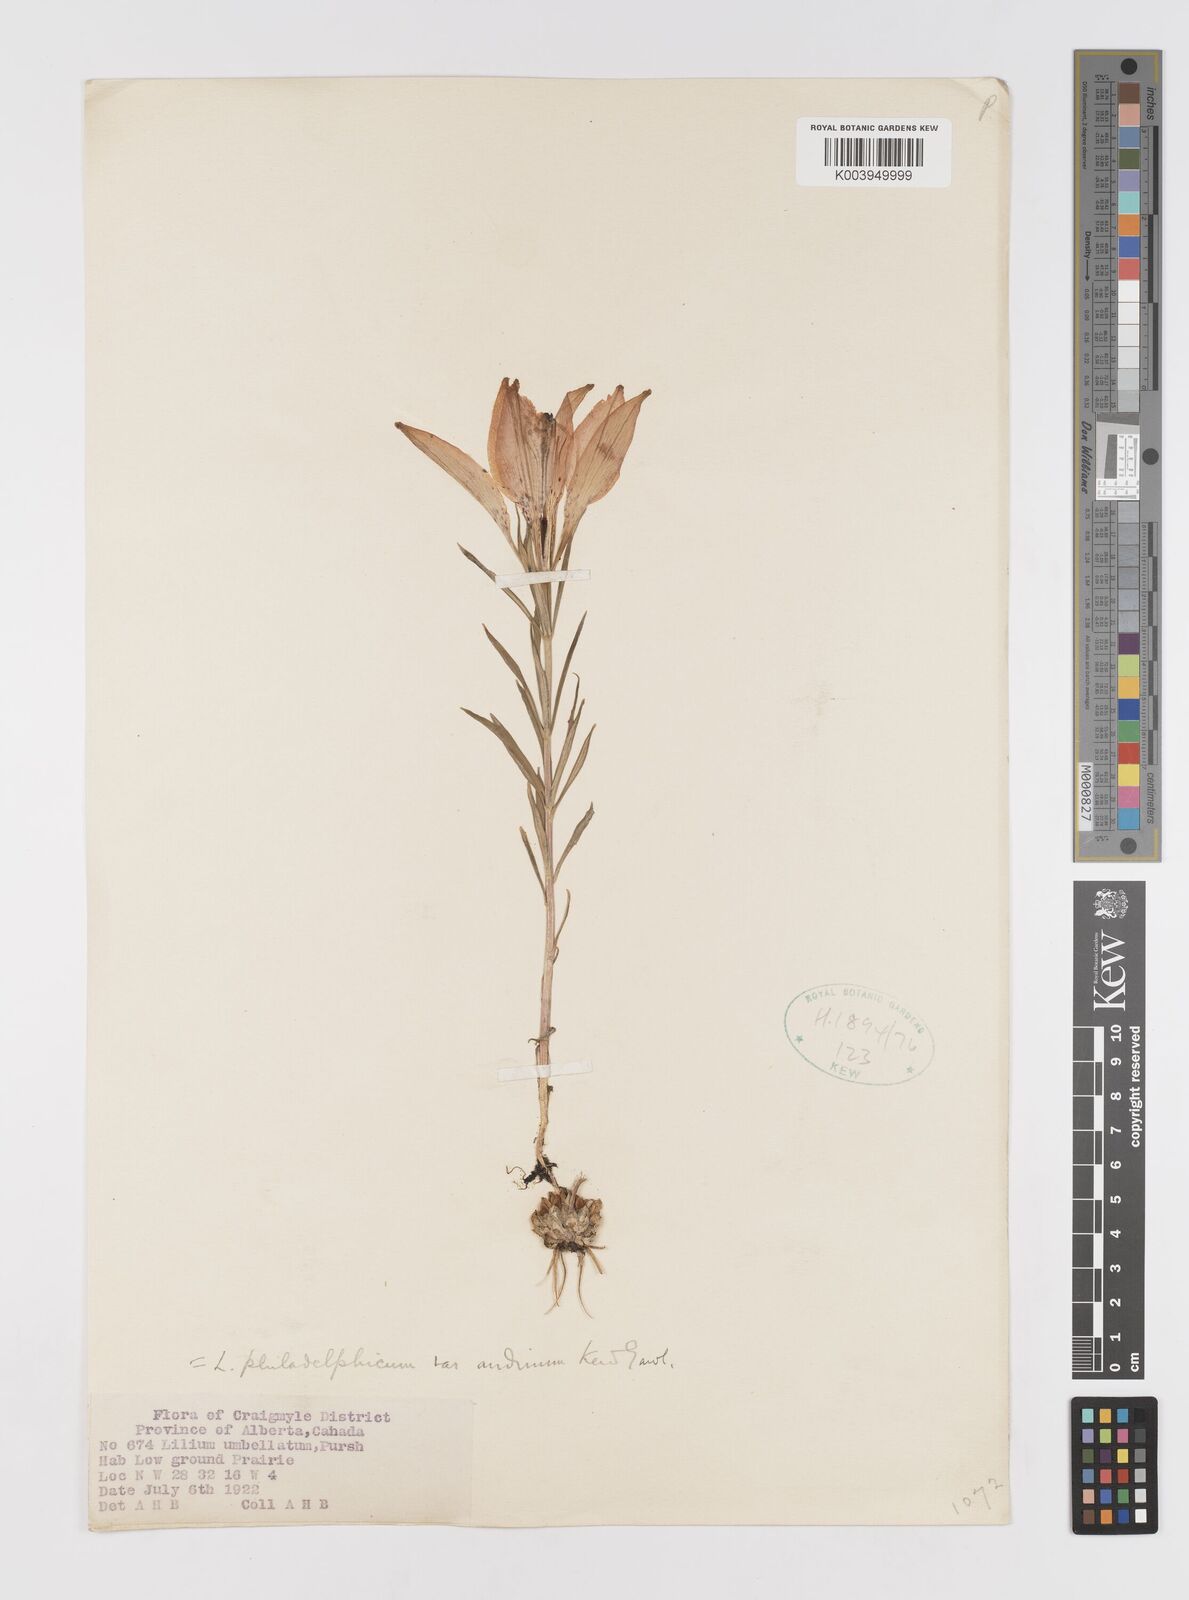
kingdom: Plantae
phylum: Tracheophyta
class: Liliopsida
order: Liliales
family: Liliaceae
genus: Lilium
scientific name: Lilium philadelphicum
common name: Red lily
